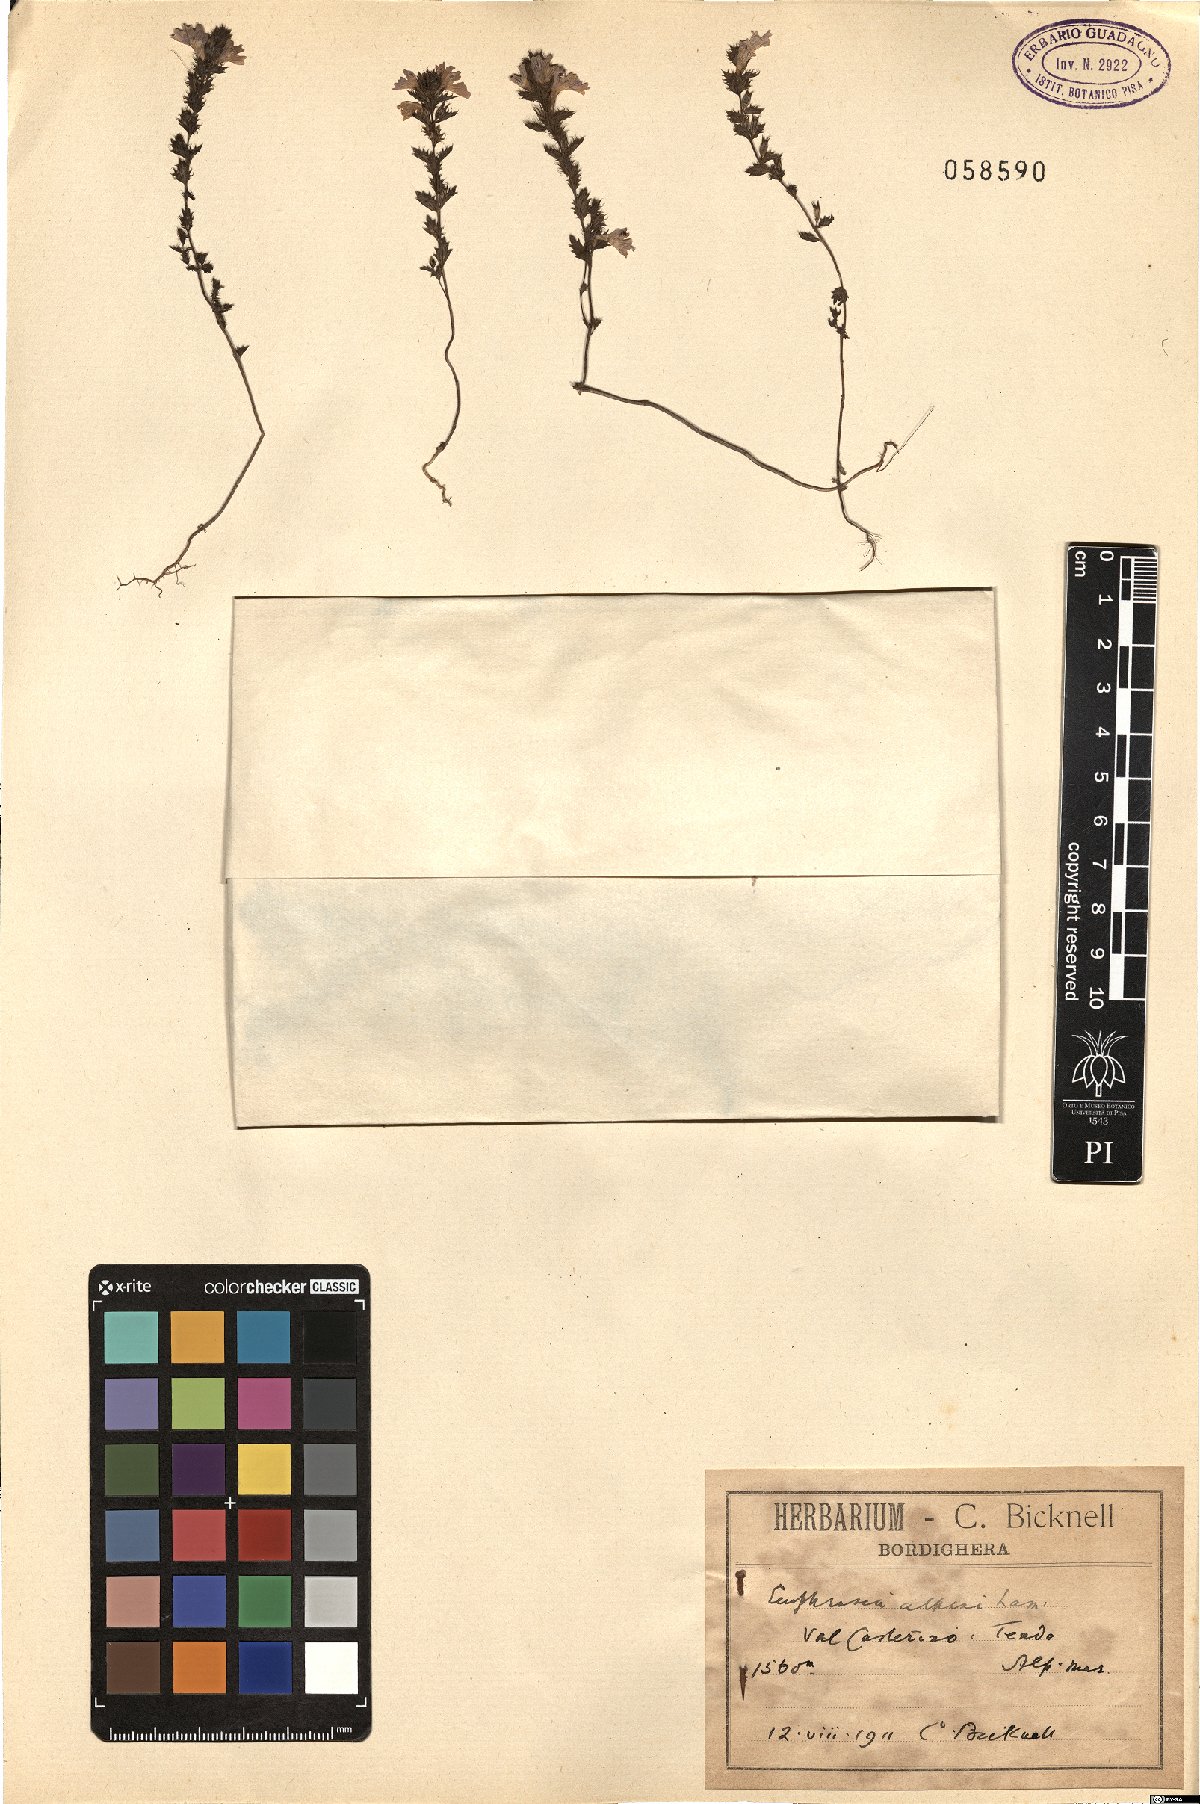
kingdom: Plantae
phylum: Tracheophyta
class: Magnoliopsida
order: Lamiales
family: Orobanchaceae
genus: Euphrasia
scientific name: Euphrasia alpina
